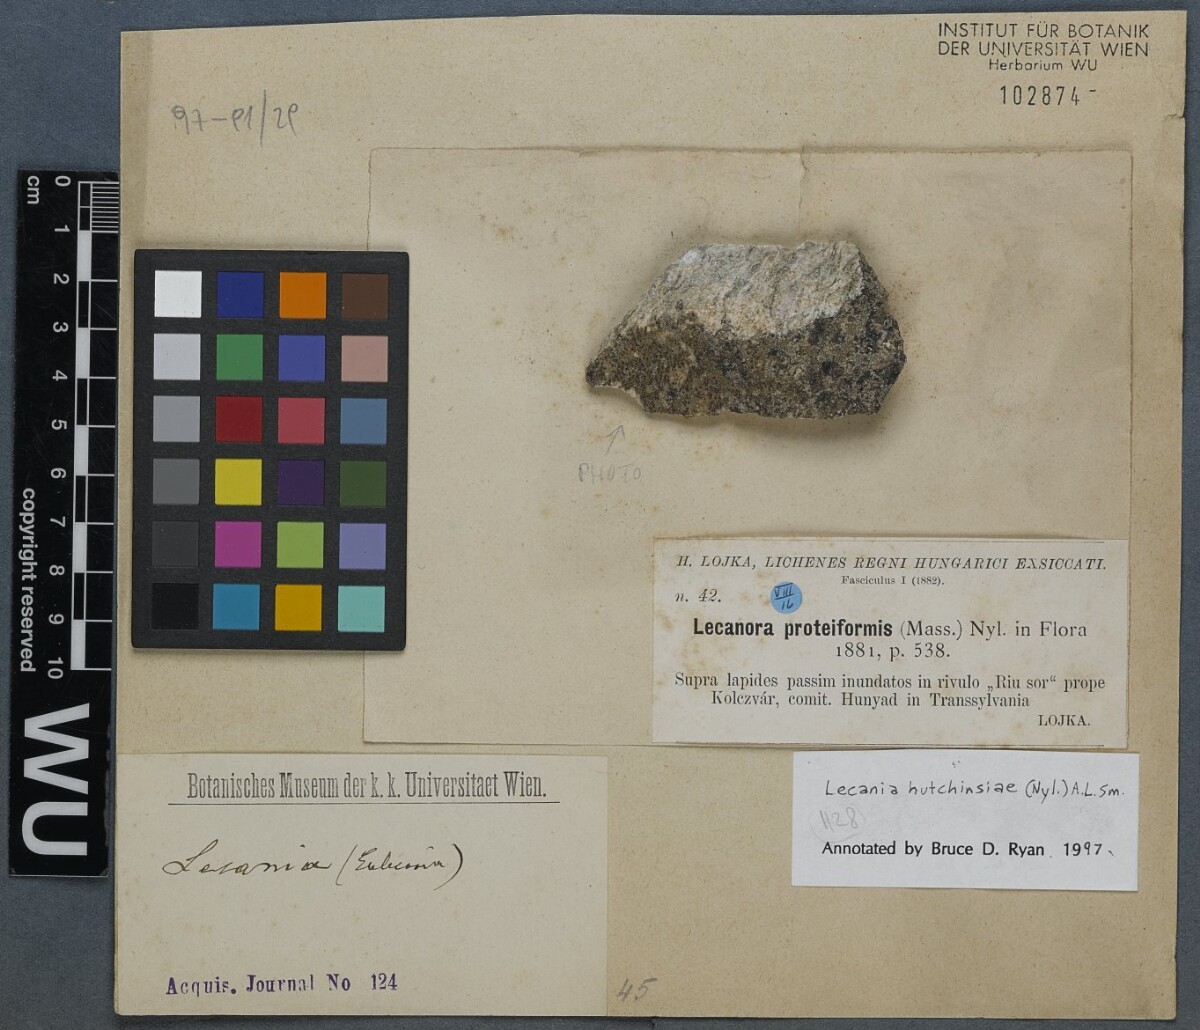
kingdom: Fungi
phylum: Ascomycota
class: Lecanoromycetes
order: Lecanorales
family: Ramalinaceae
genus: Lecania
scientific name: Lecania hutchinsiae
